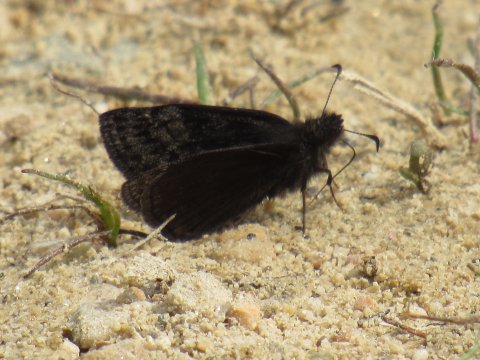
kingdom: Animalia
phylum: Arthropoda
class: Insecta
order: Lepidoptera
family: Hesperiidae
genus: Erynnis
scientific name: Erynnis icelus
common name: Dreamy Duskywing
